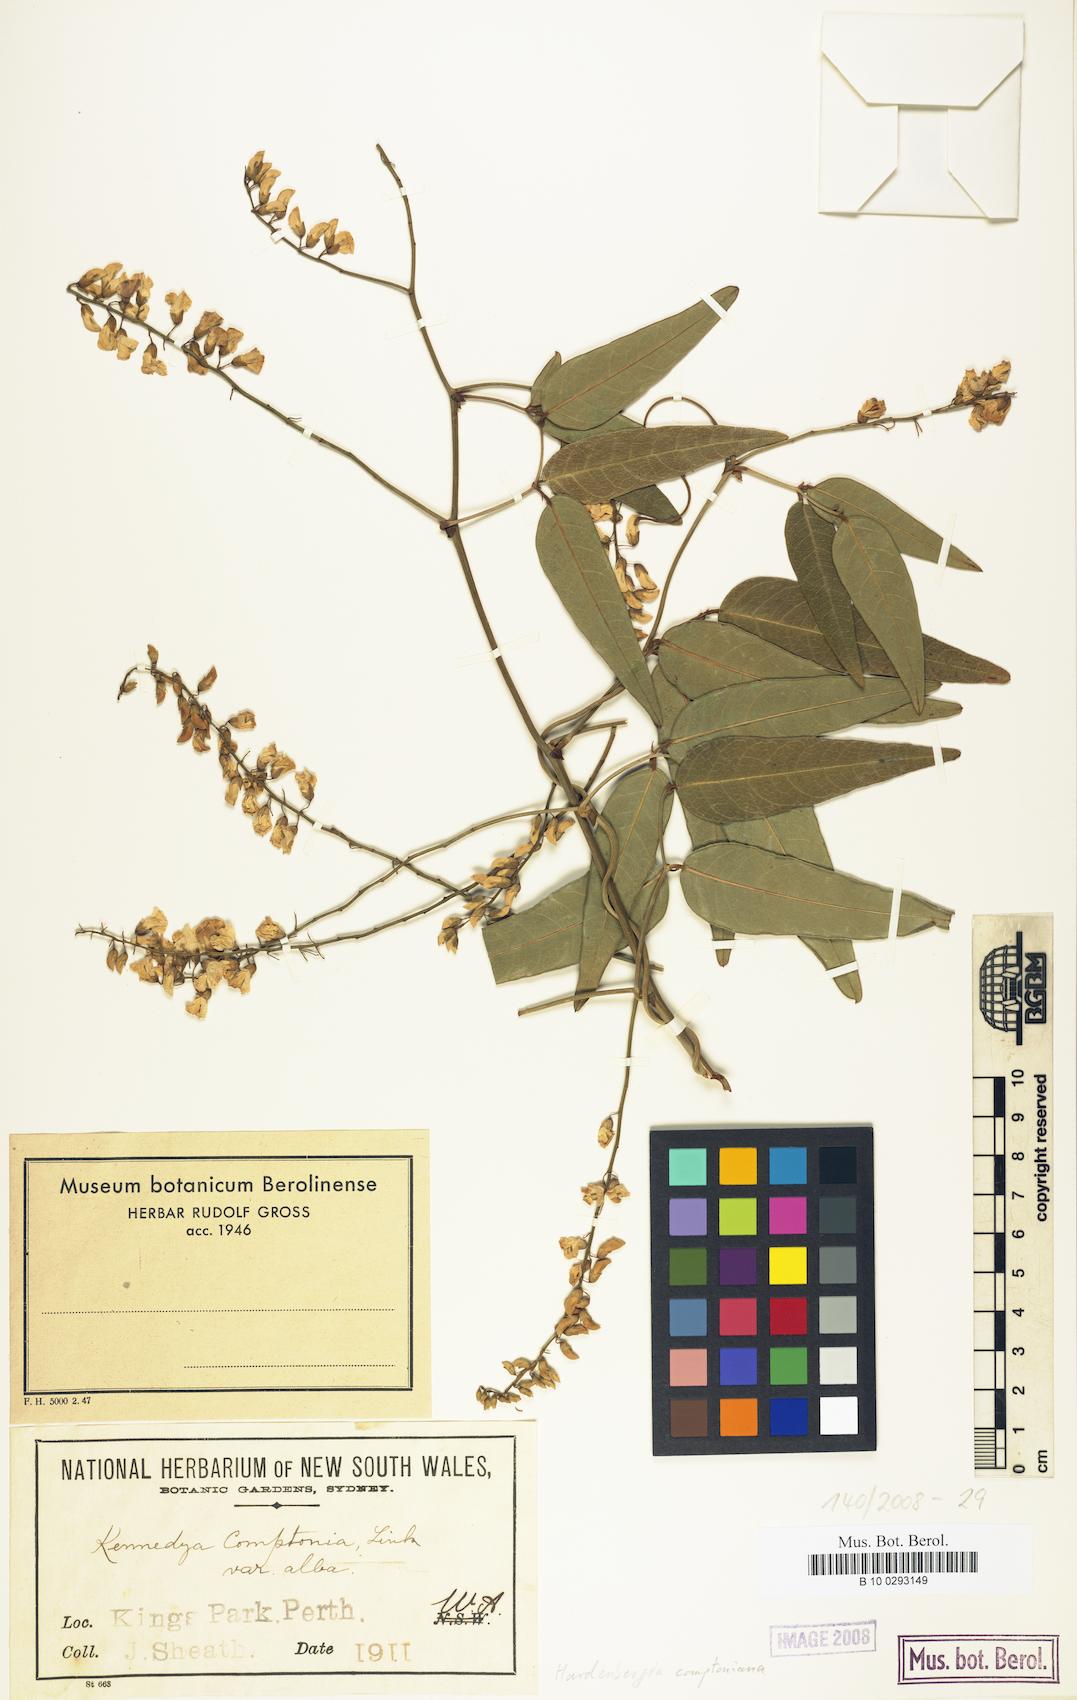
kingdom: Plantae
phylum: Tracheophyta
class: Magnoliopsida
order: Fabales
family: Fabaceae
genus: Hardenbergia
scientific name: Hardenbergia comptoniana
